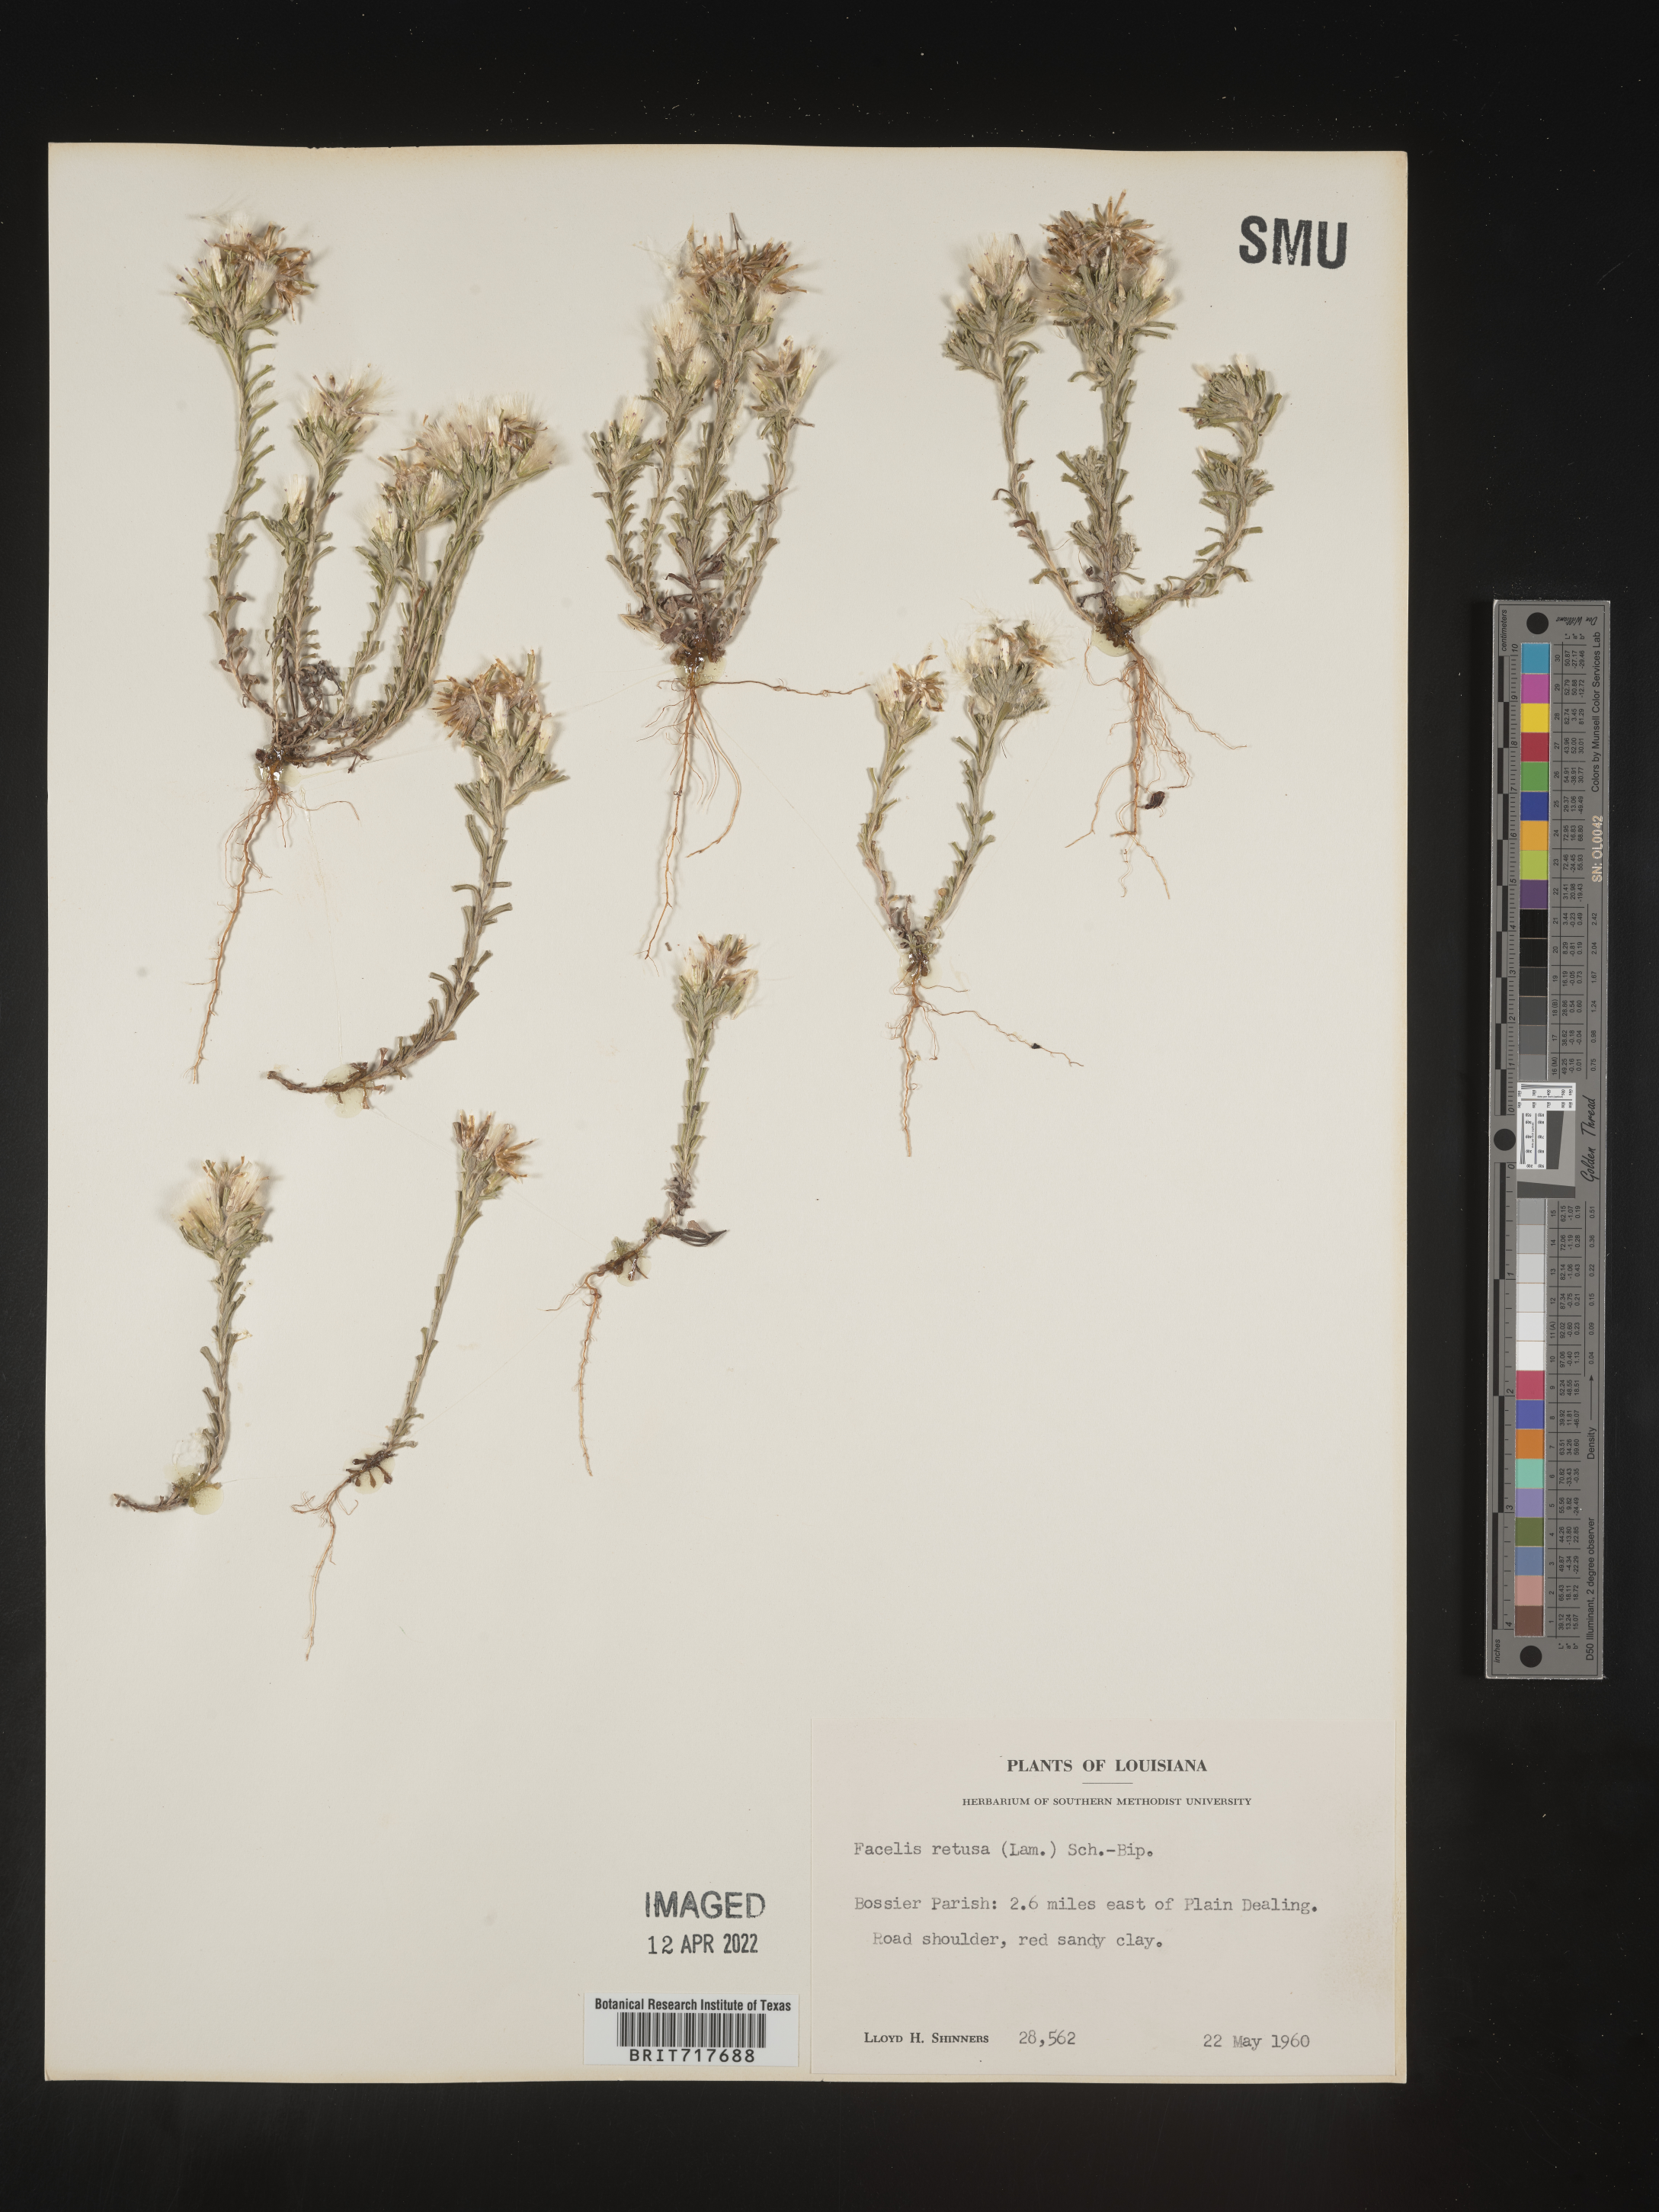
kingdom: Plantae
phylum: Tracheophyta
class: Magnoliopsida
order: Asterales
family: Asteraceae
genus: Facelis
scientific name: Facelis retusa
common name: Annual trampweed
